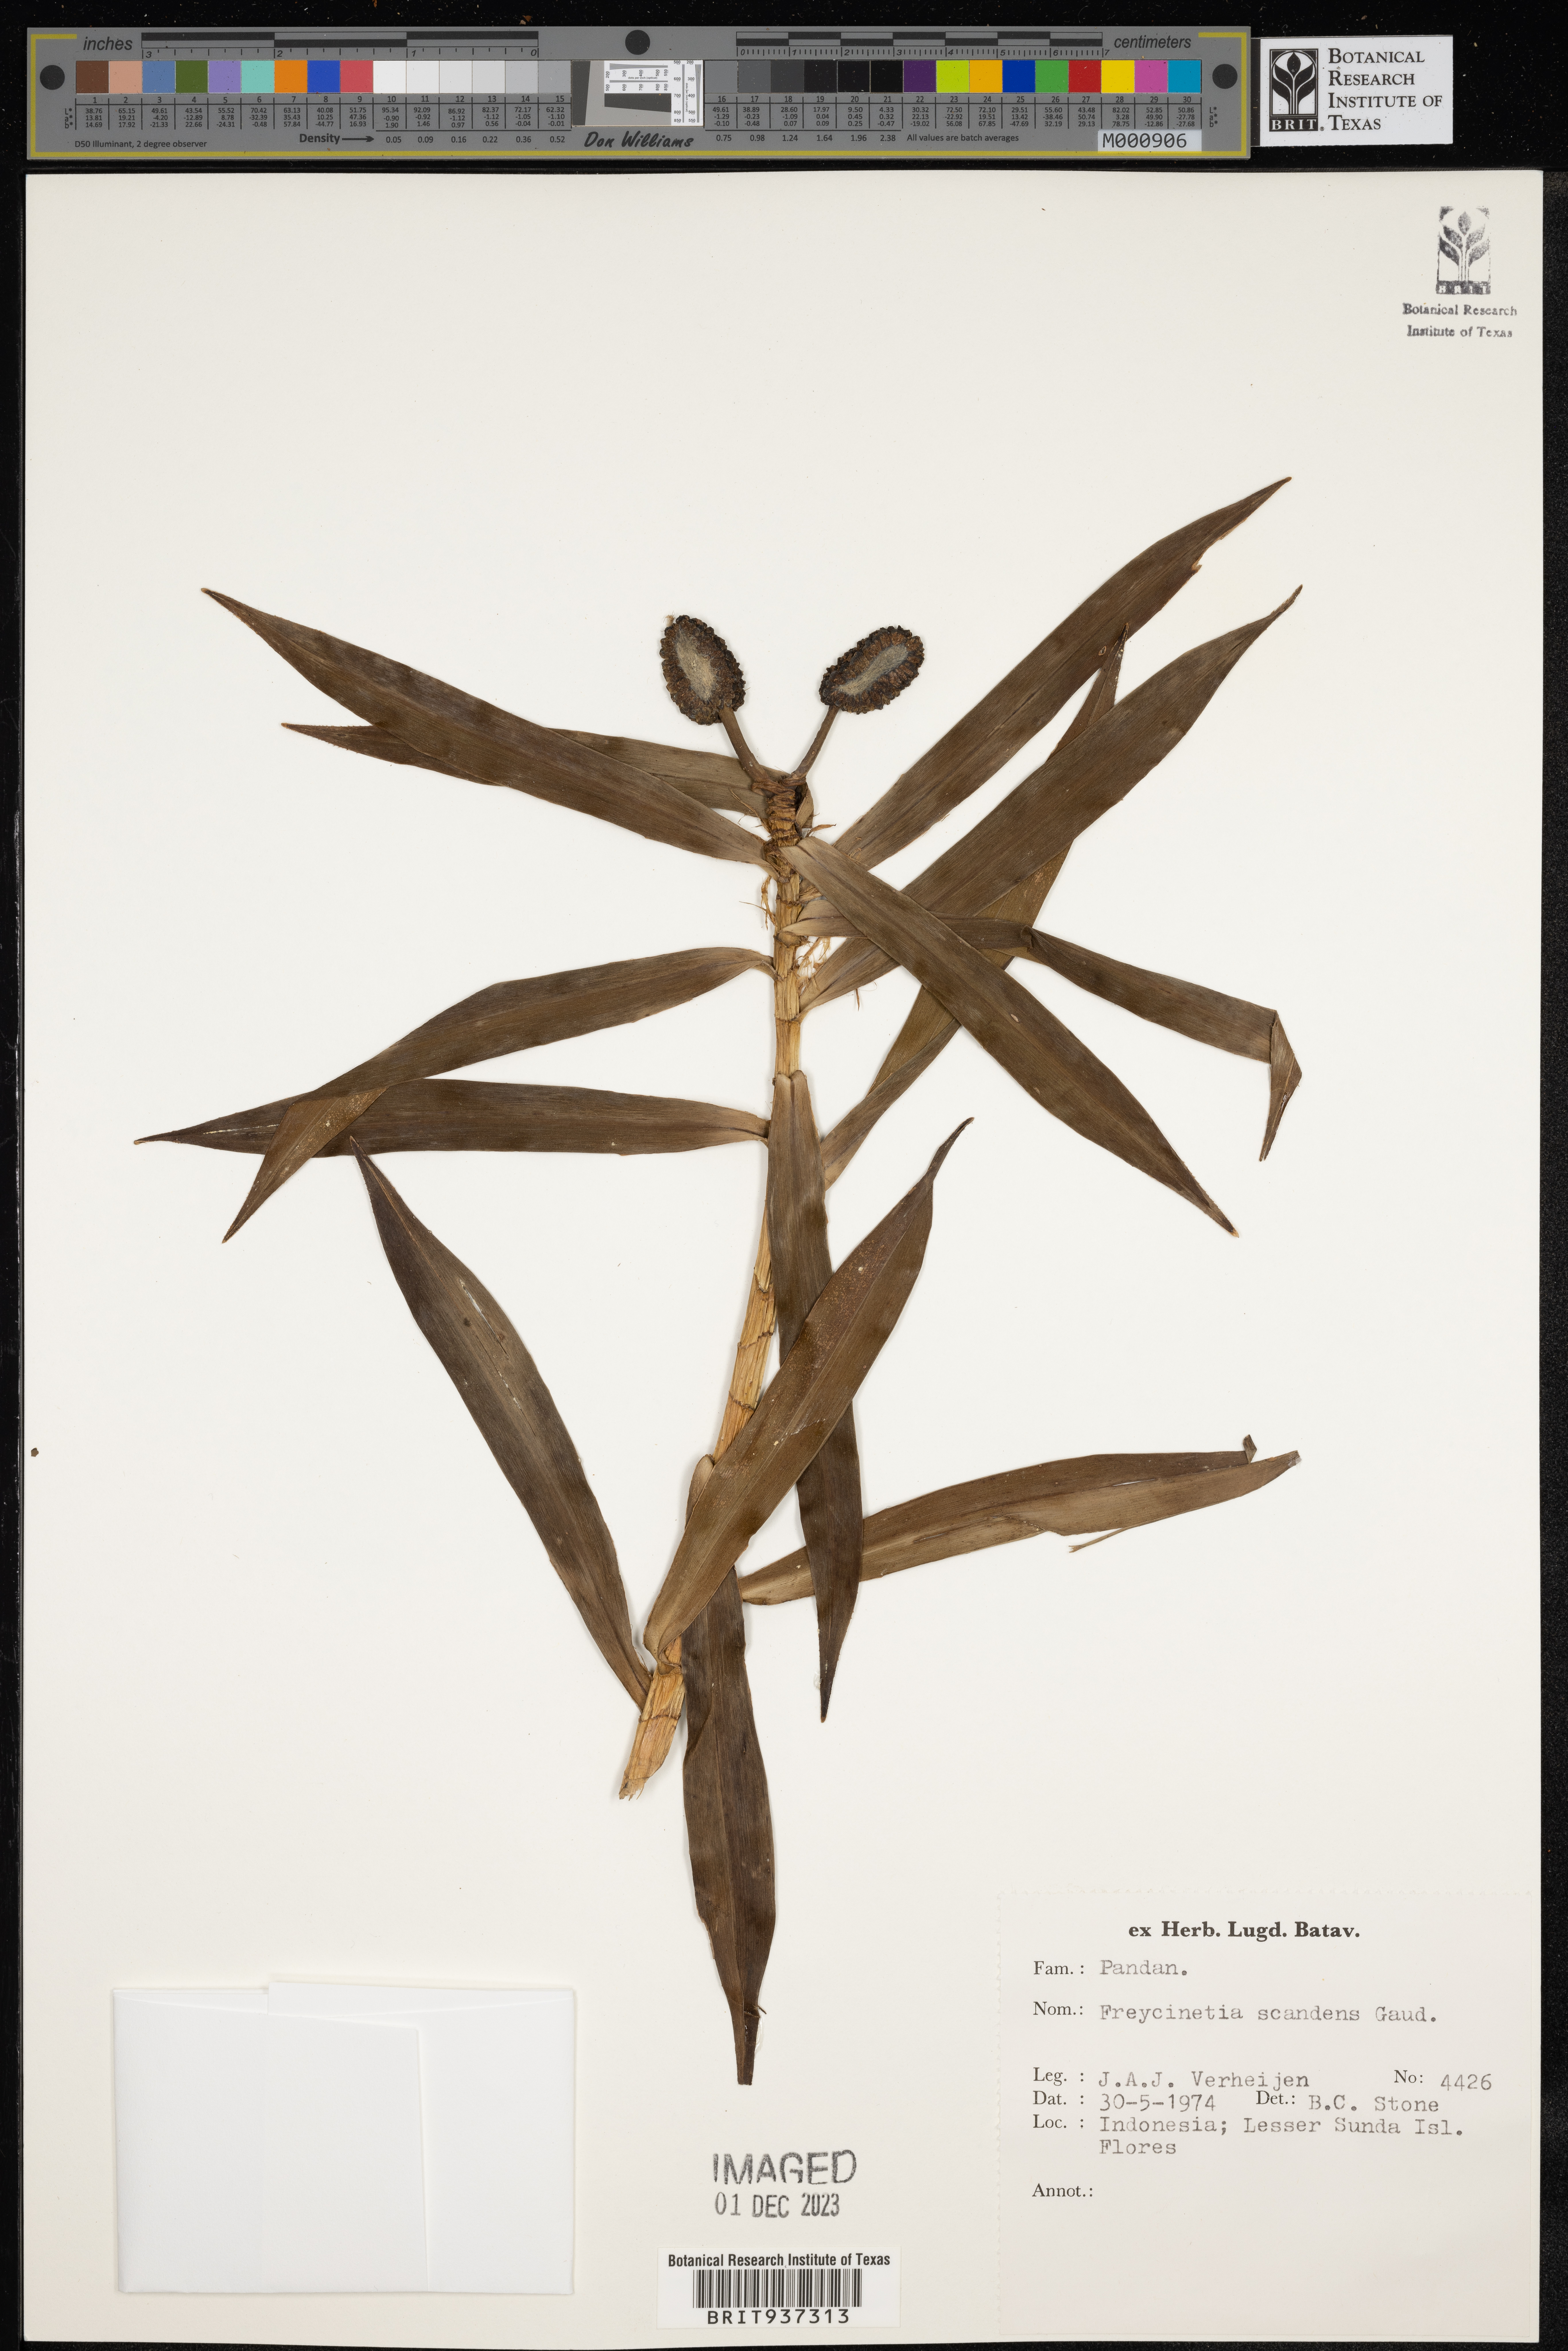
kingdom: Plantae
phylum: Tracheophyta
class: Liliopsida
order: Pandanales
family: Pandanaceae
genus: Freycinetia
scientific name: Freycinetia
